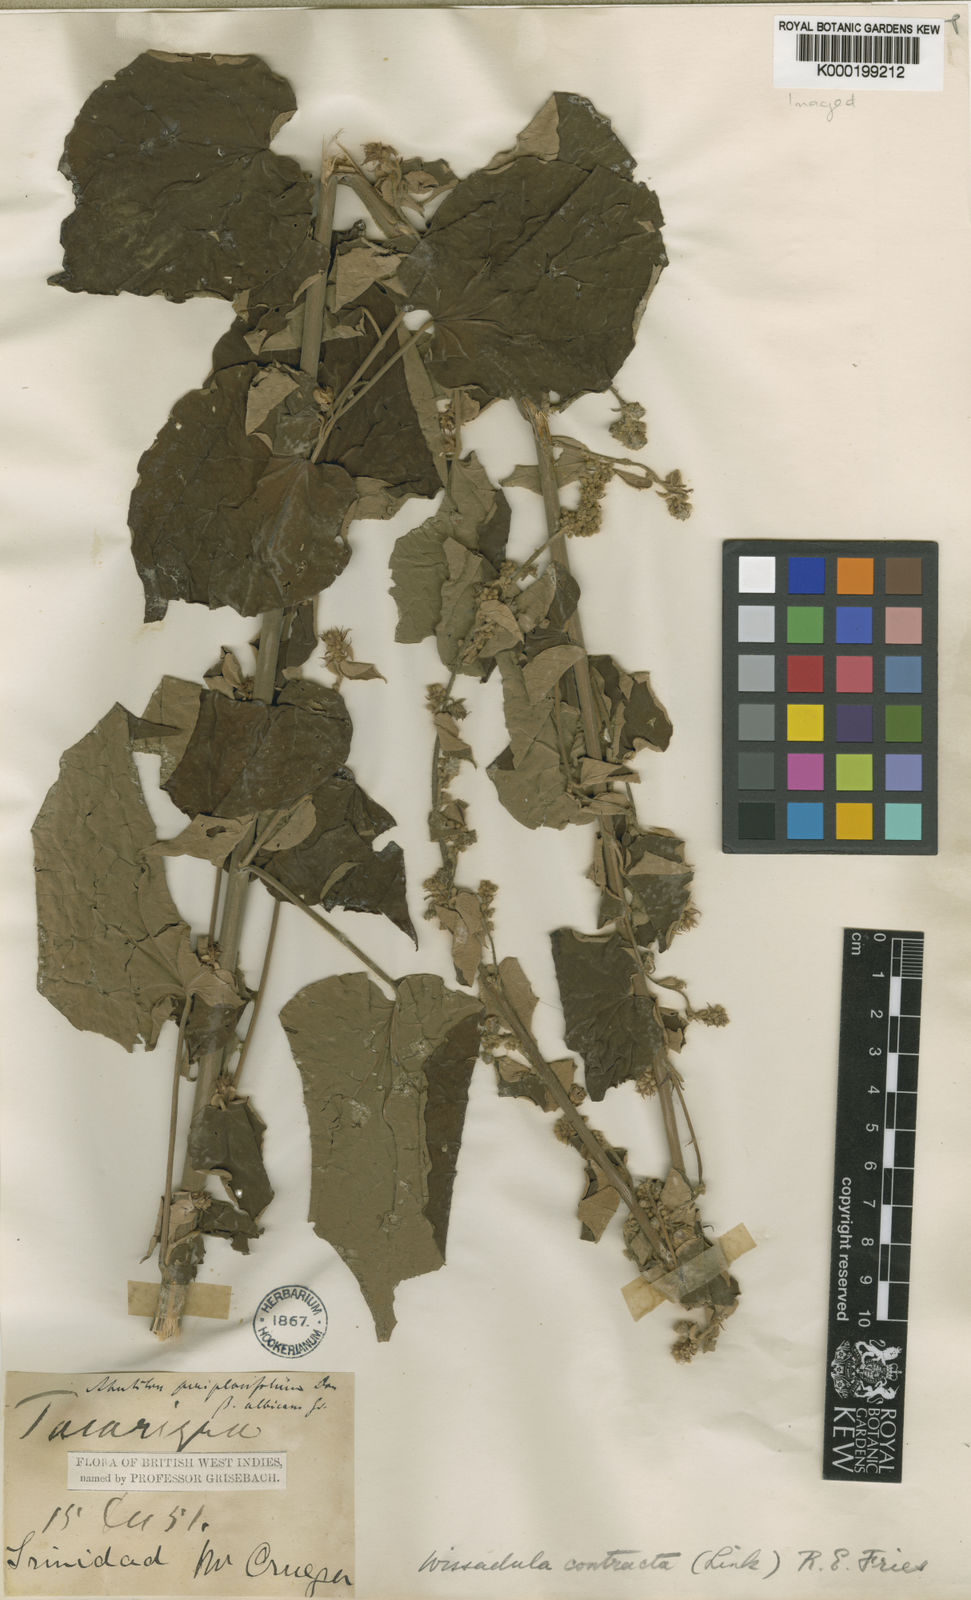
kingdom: Plantae
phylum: Tracheophyta
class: Magnoliopsida
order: Malvales
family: Malvaceae
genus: Wissadula
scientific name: Wissadula contracta
